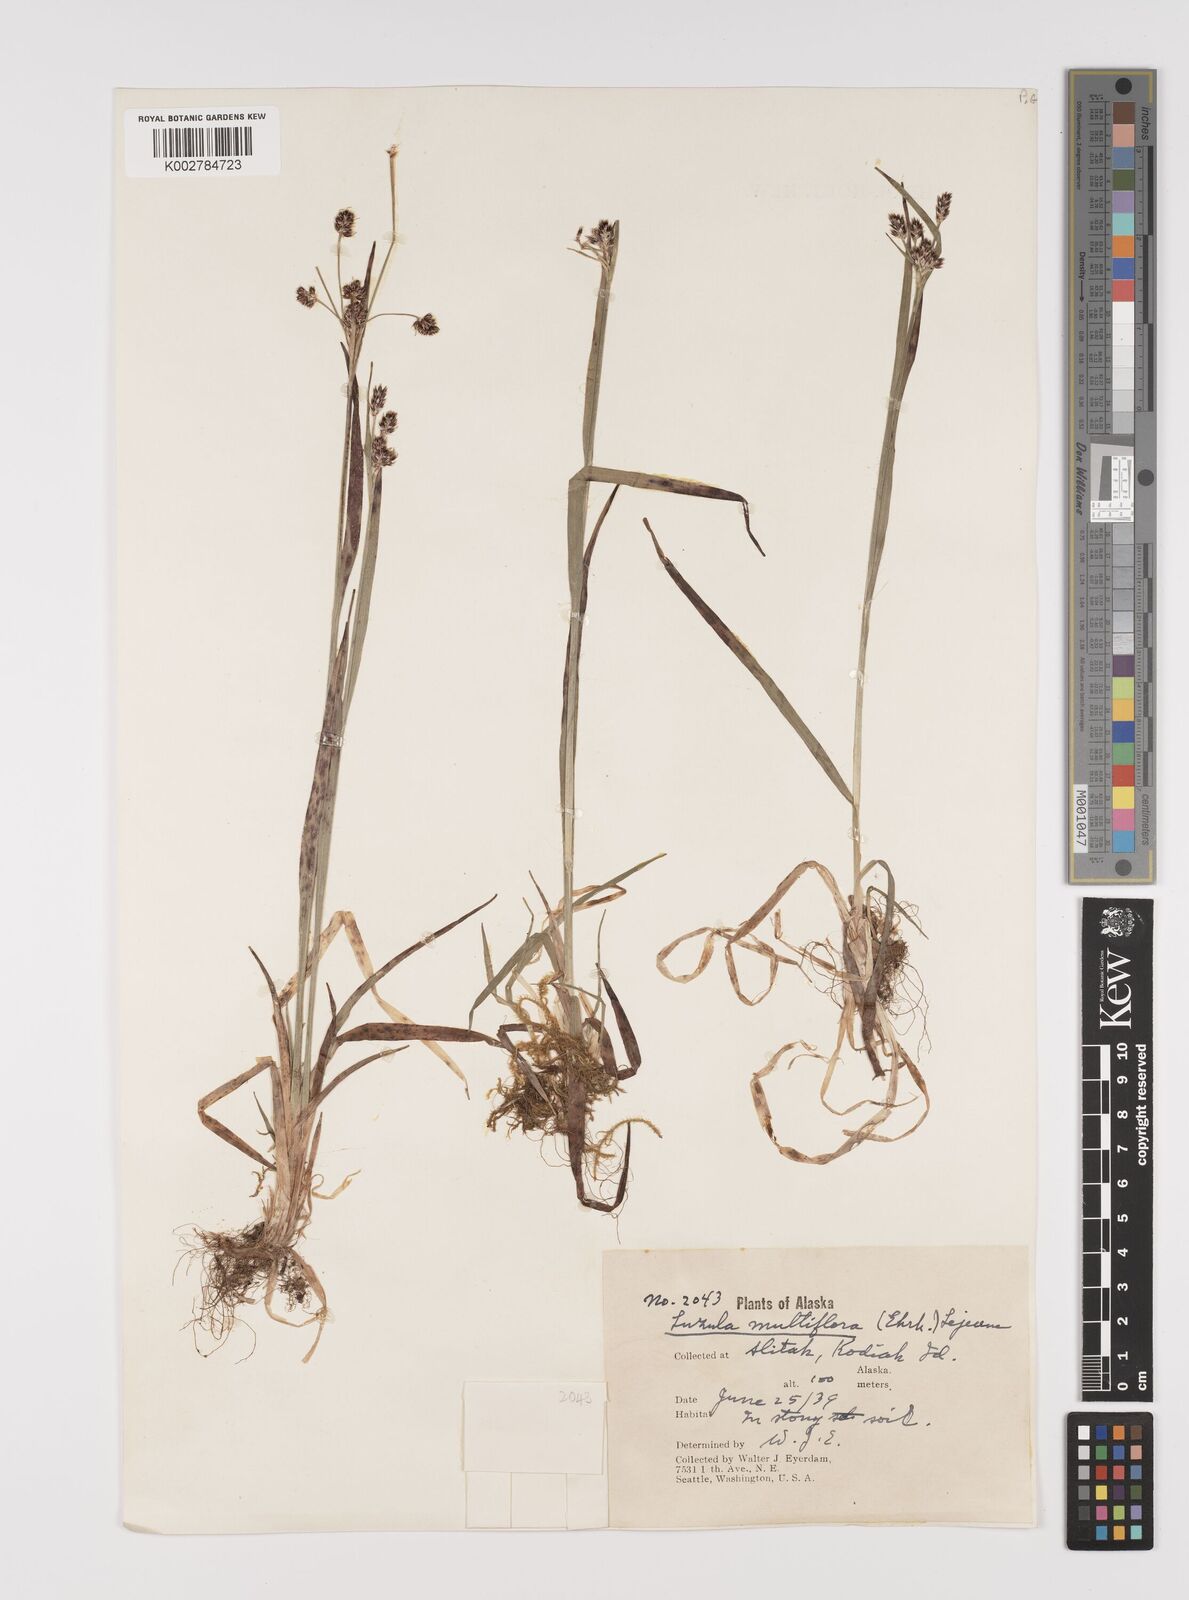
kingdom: Plantae
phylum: Tracheophyta
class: Liliopsida
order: Poales
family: Juncaceae
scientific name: Juncaceae
